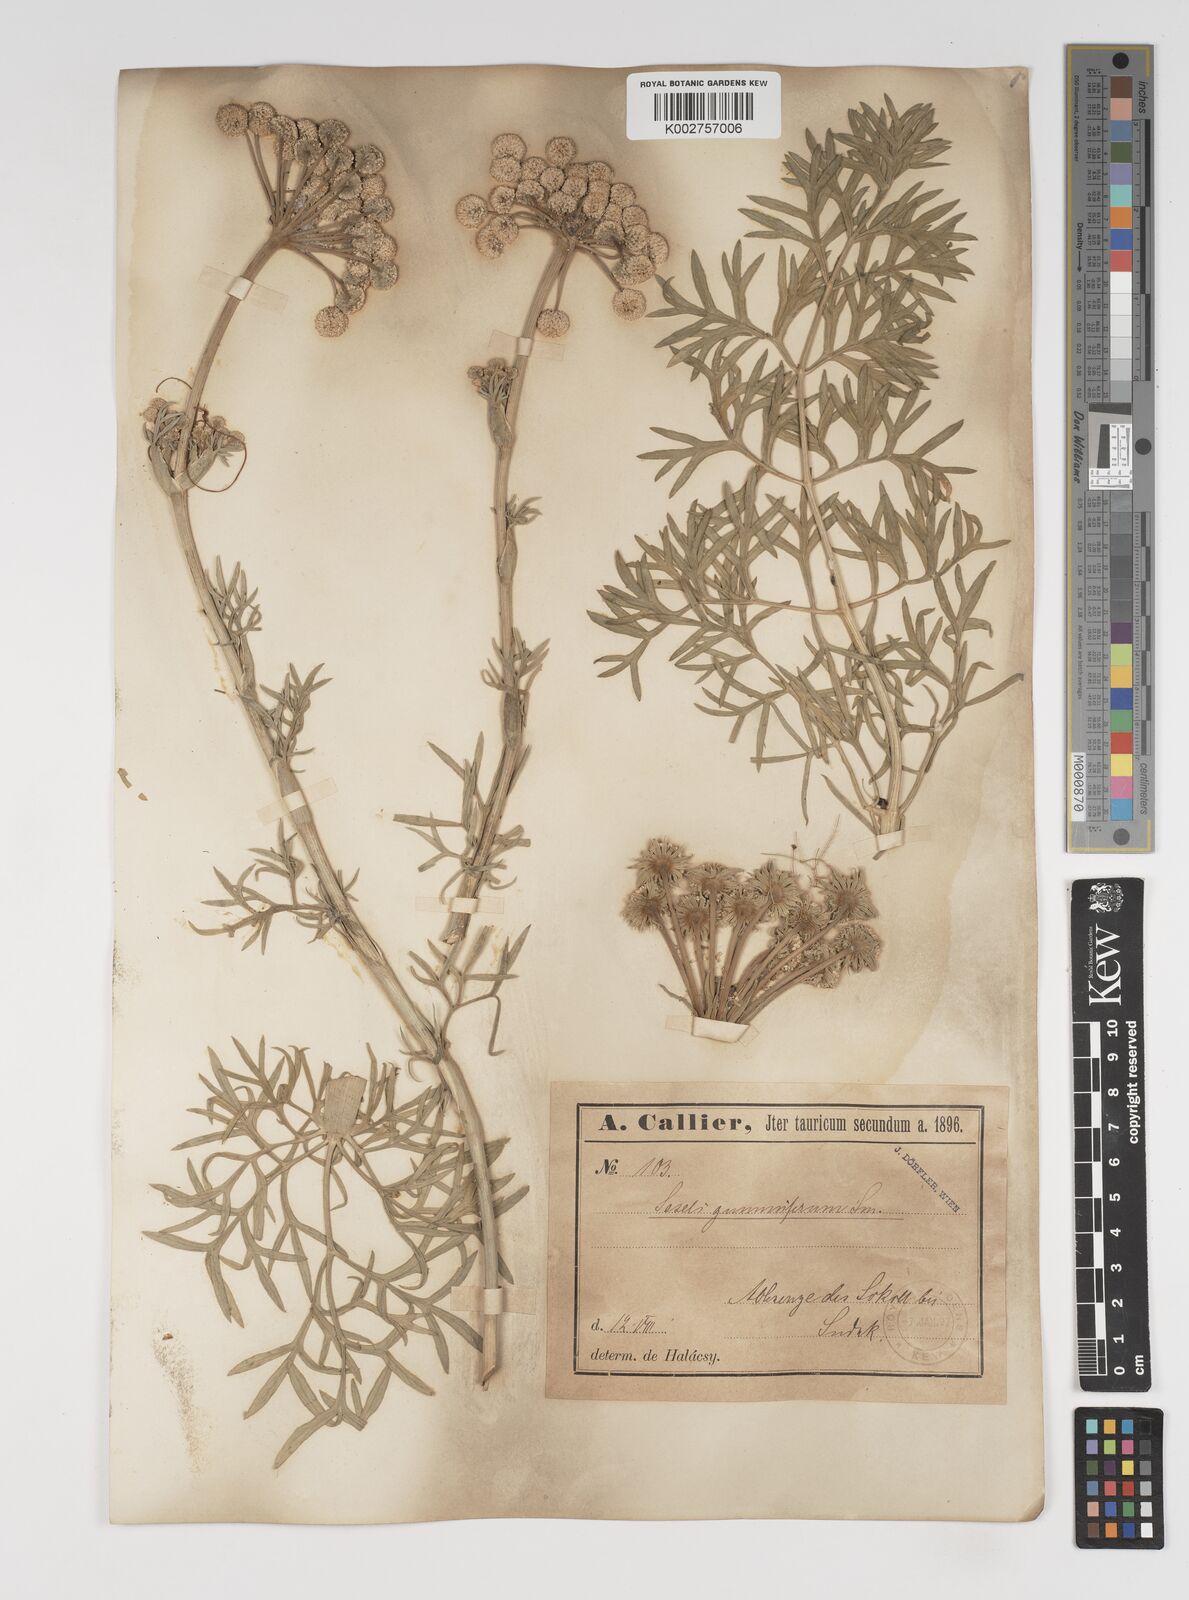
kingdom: Plantae
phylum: Tracheophyta
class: Magnoliopsida
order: Apiales
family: Apiaceae
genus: Seseli
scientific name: Seseli gummiferum
